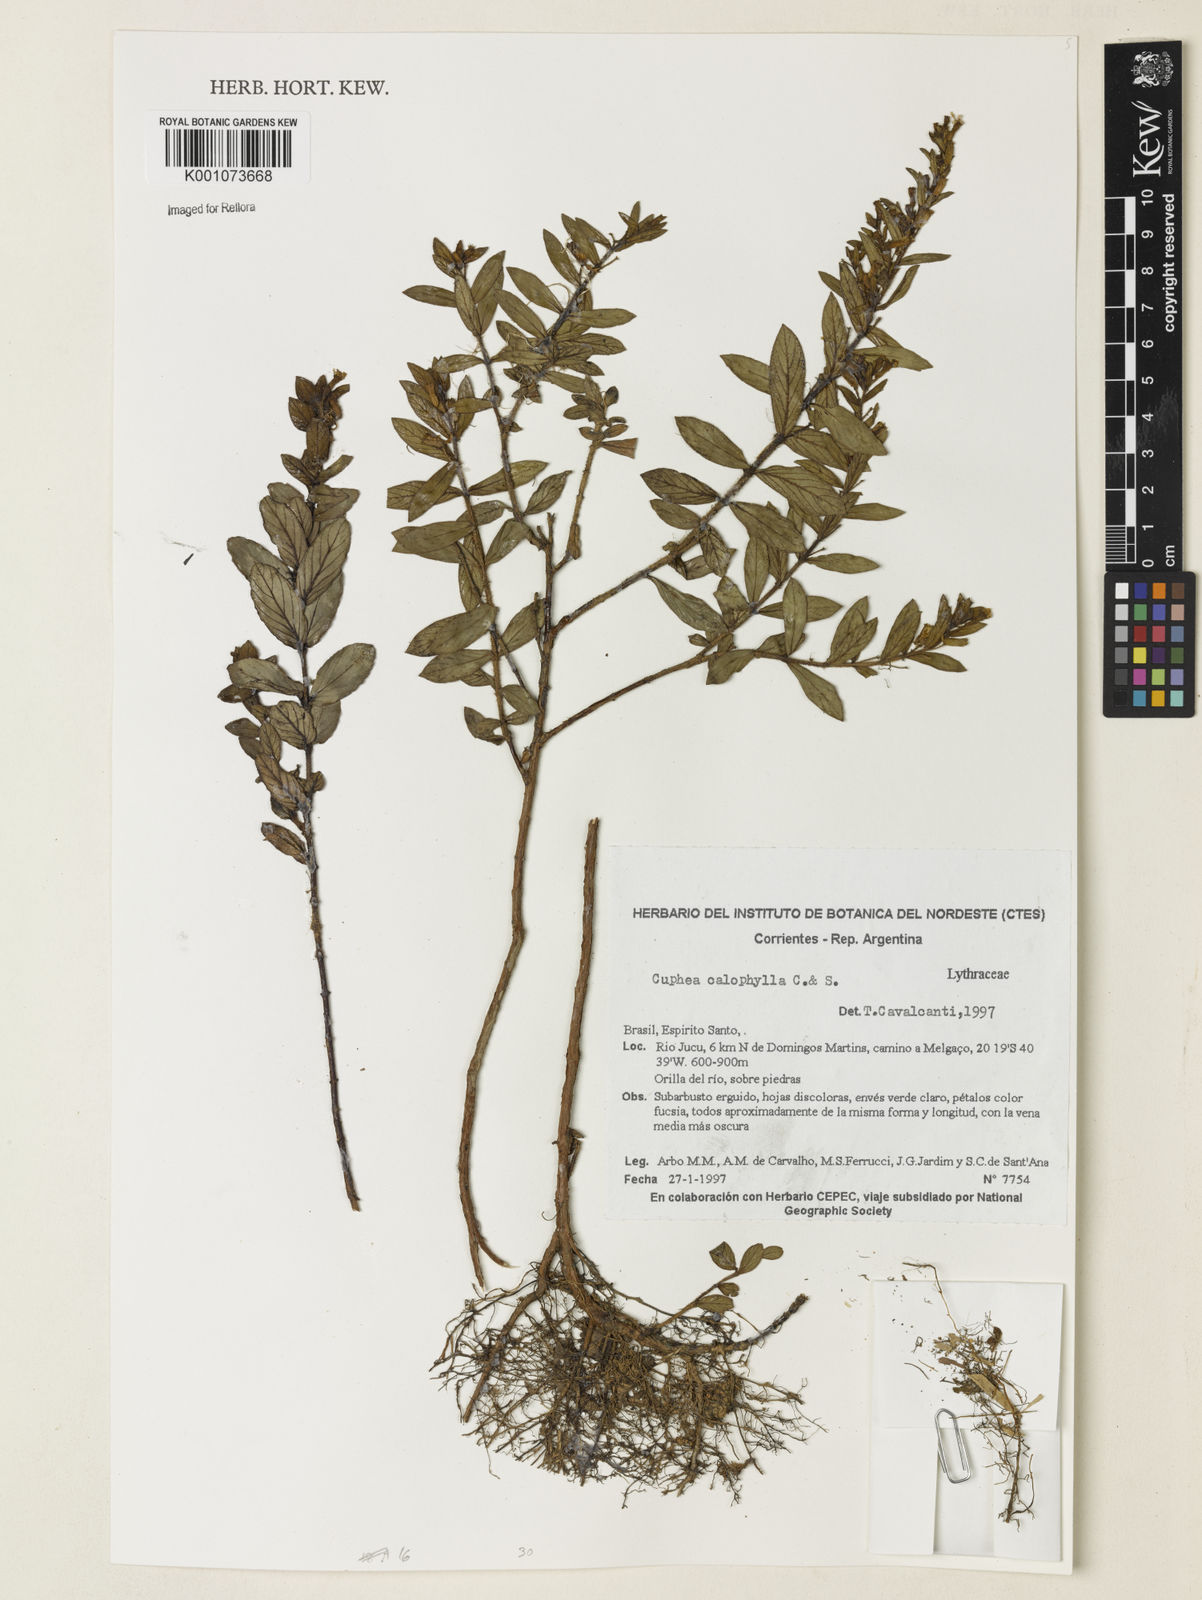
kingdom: Plantae
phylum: Tracheophyta
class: Magnoliopsida
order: Myrtales
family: Lythraceae
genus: Cuphea
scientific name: Cuphea calophylla
